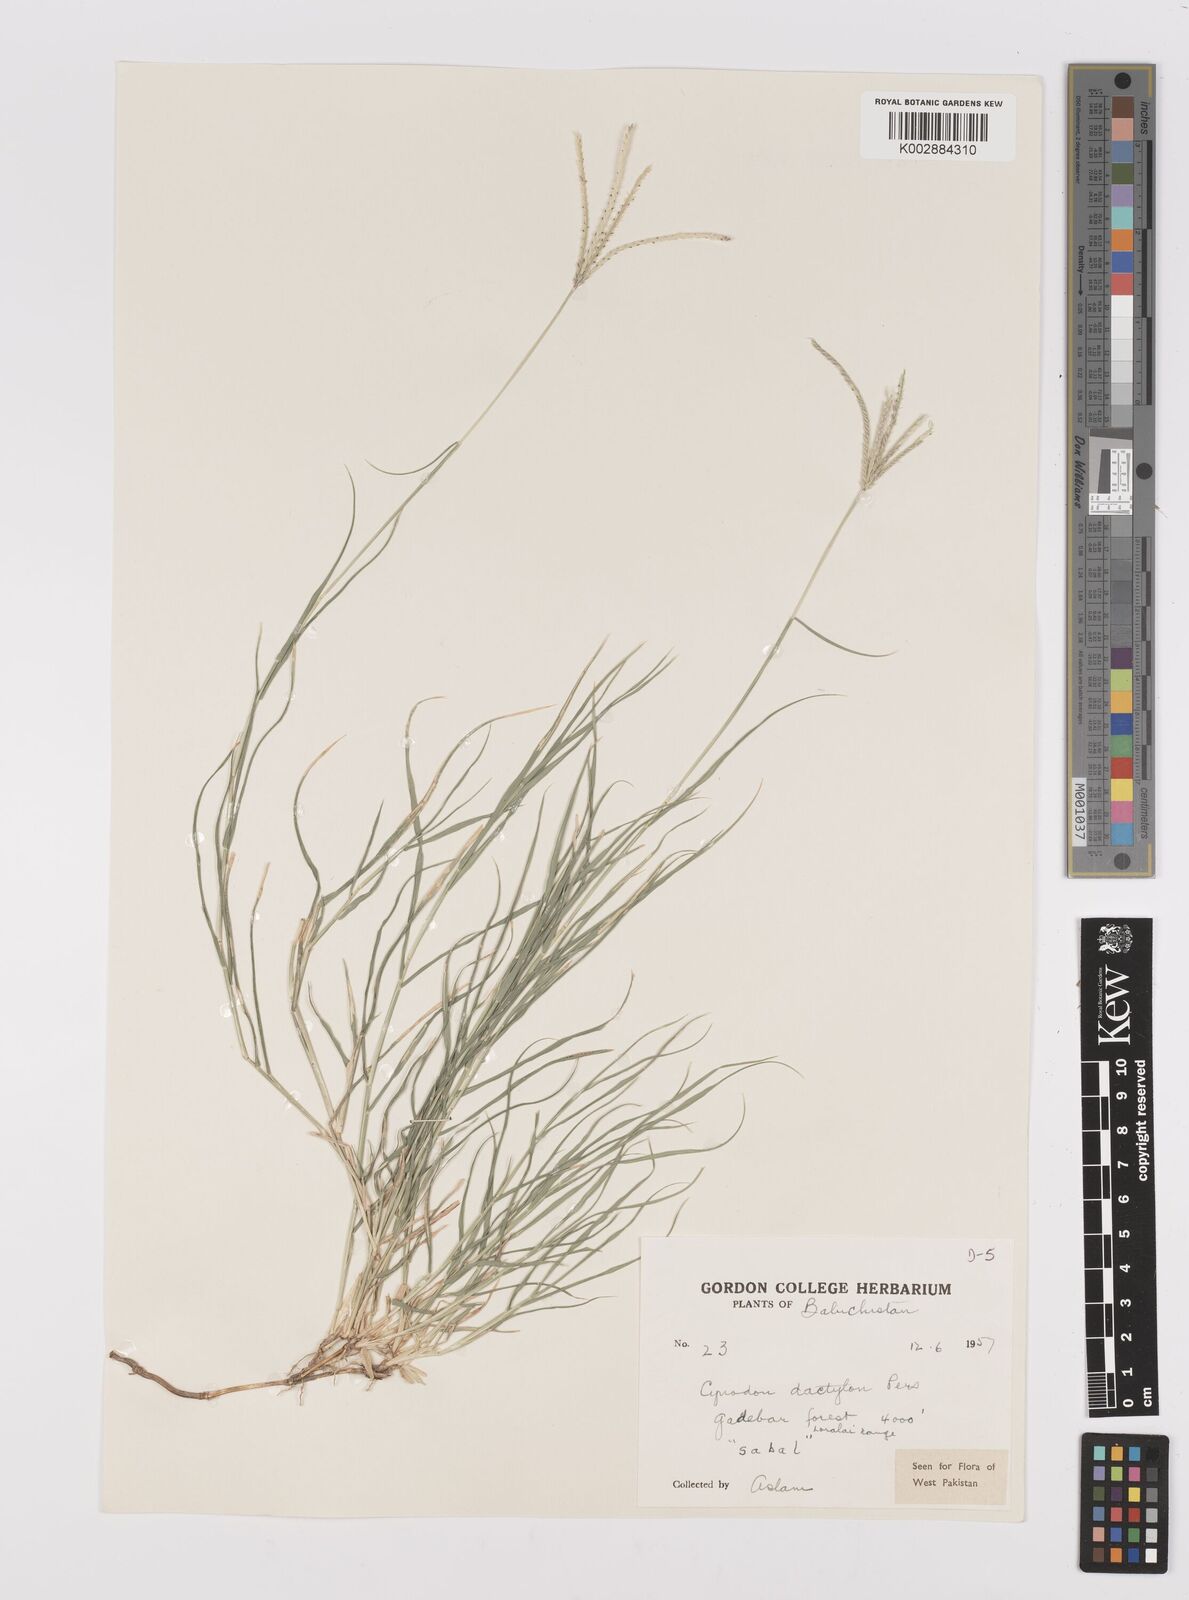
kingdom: Plantae
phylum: Tracheophyta
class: Liliopsida
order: Poales
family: Poaceae
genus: Cynodon
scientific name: Cynodon dactylon
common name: Bermuda grass
